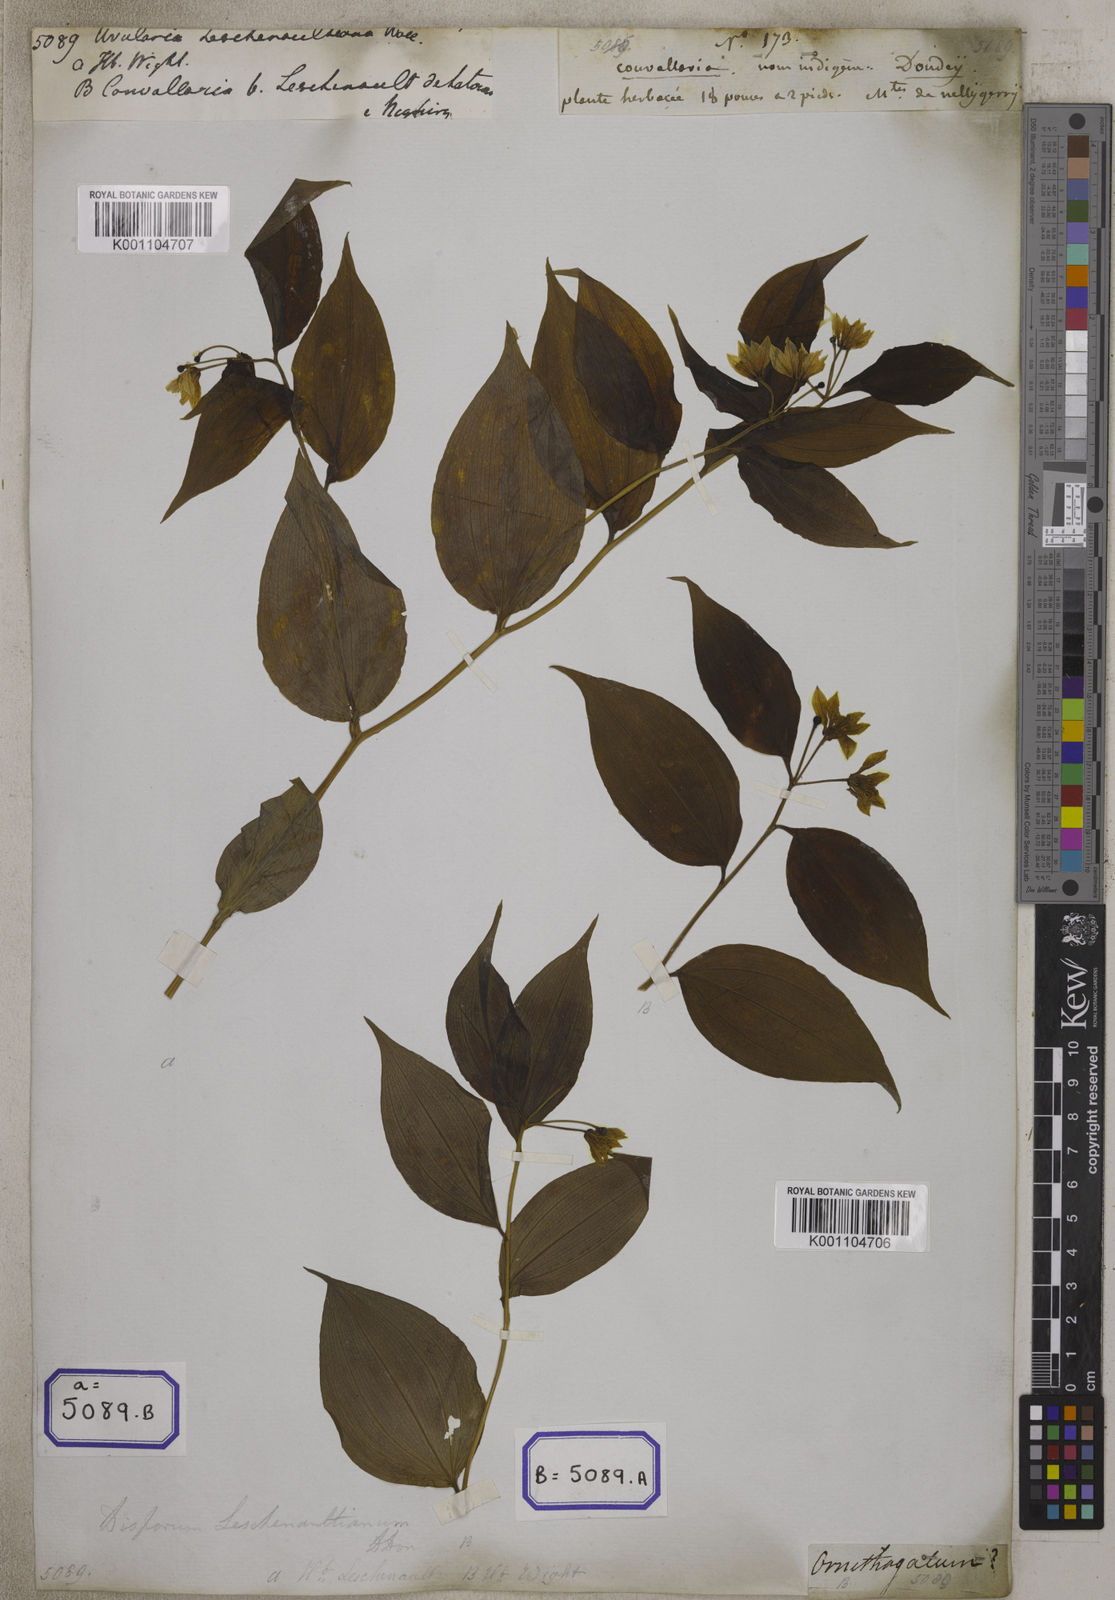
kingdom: Plantae
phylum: Tracheophyta
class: Liliopsida
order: Liliales
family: Colchicaceae
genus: Disporum
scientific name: Disporum cantoniense
